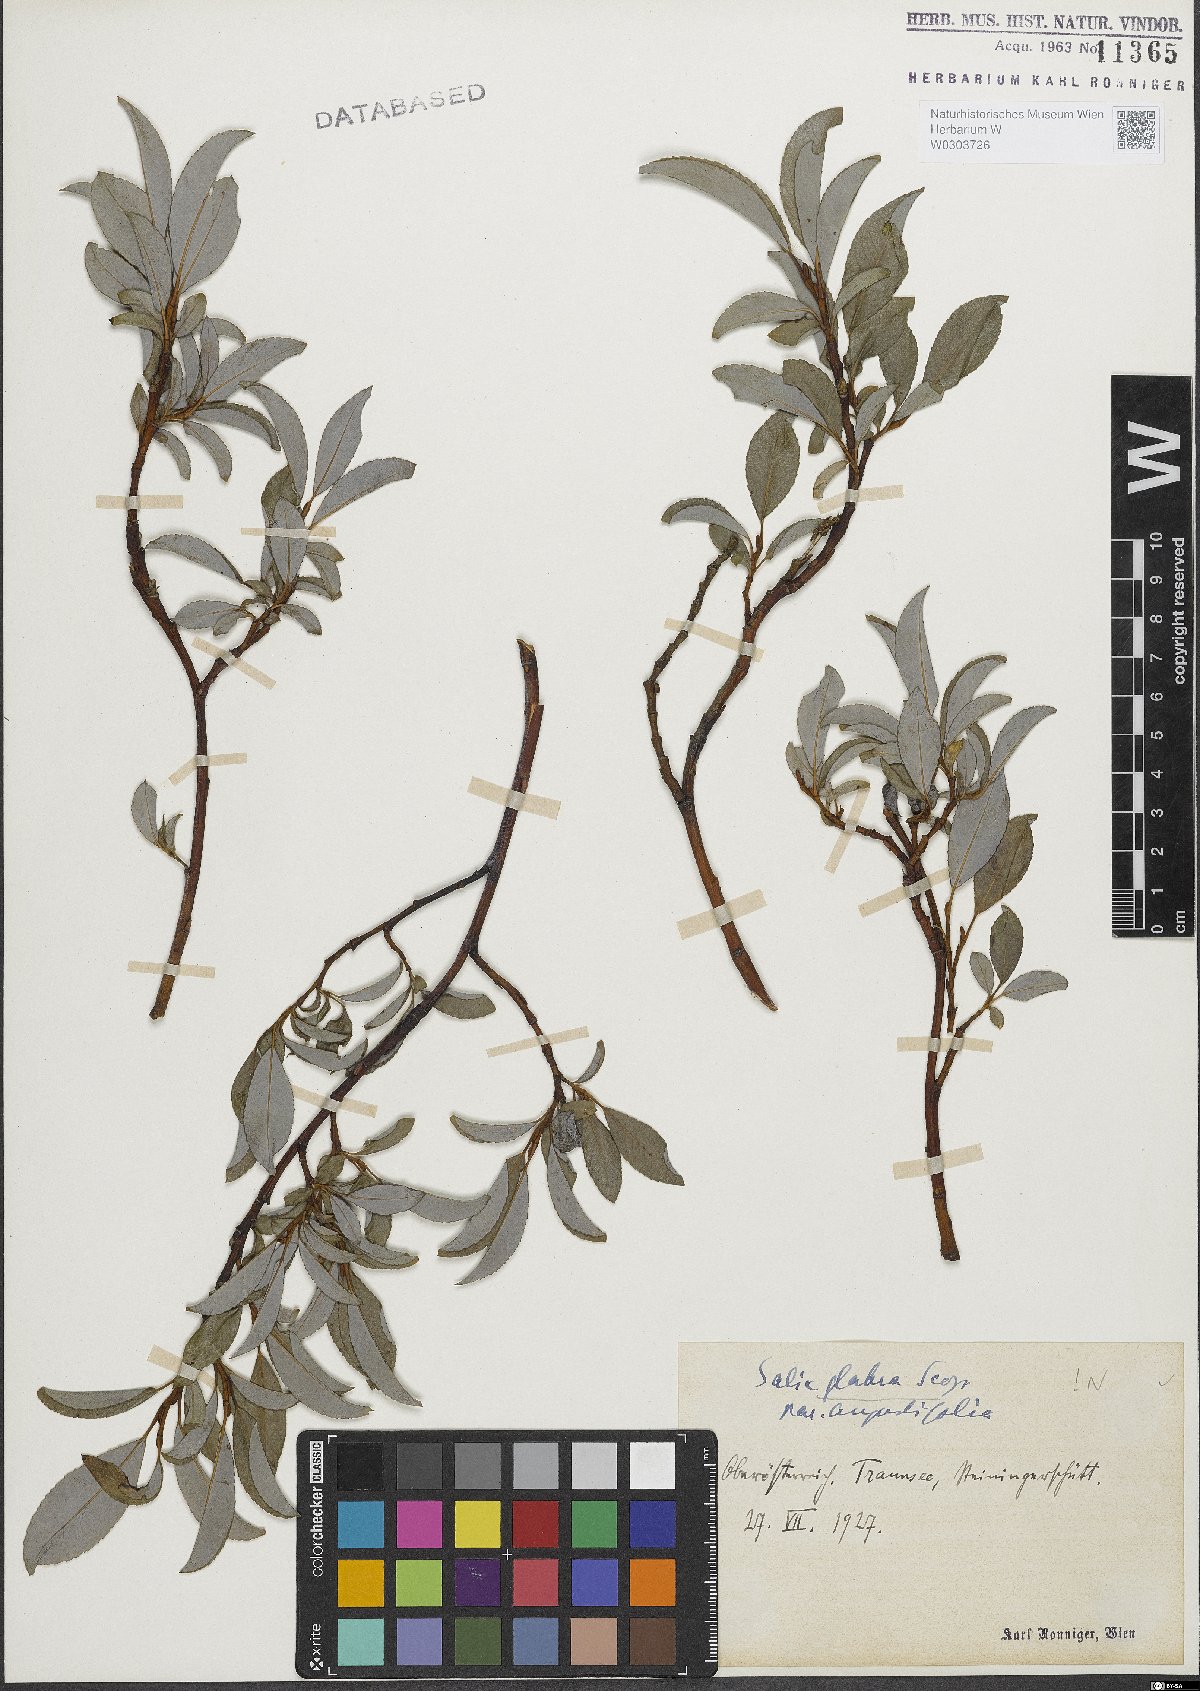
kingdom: Plantae
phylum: Tracheophyta
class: Magnoliopsida
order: Malpighiales
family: Salicaceae
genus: Salix
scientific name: Salix glabra
